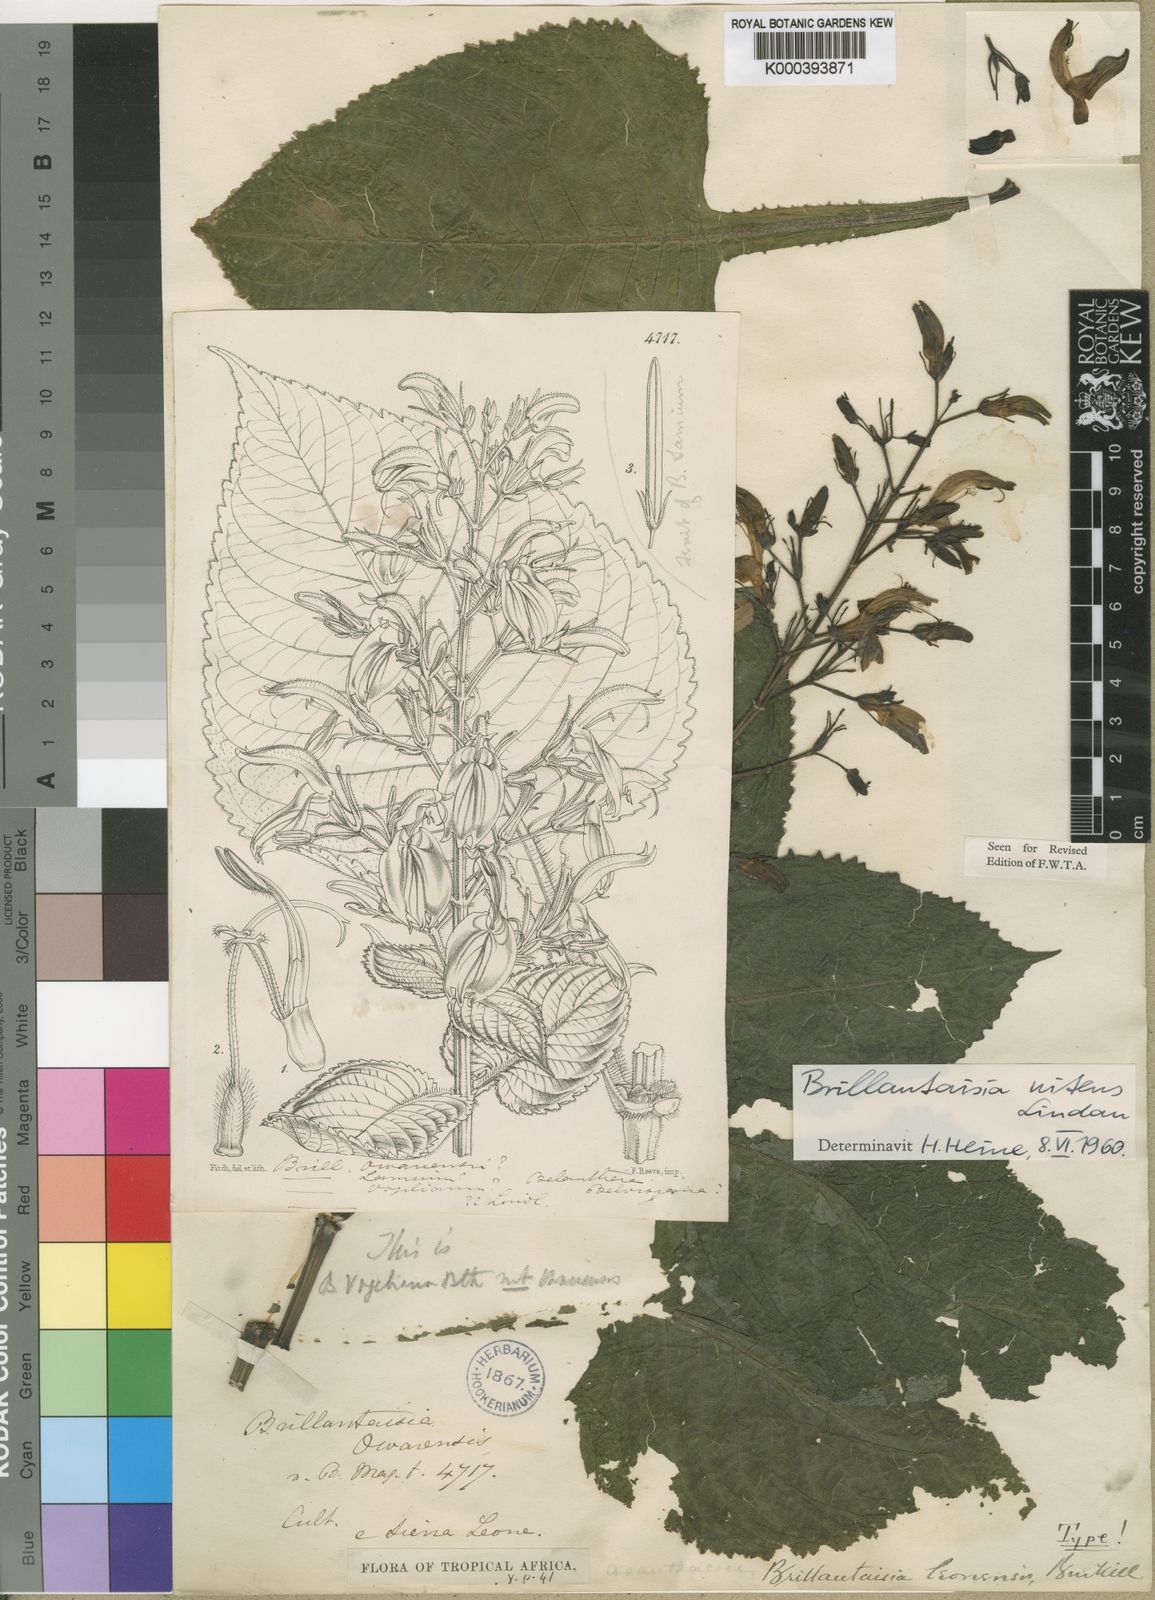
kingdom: Plantae
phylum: Tracheophyta
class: Magnoliopsida
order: Lamiales
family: Acanthaceae
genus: Brillantaisia
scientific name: Brillantaisia owariensis
